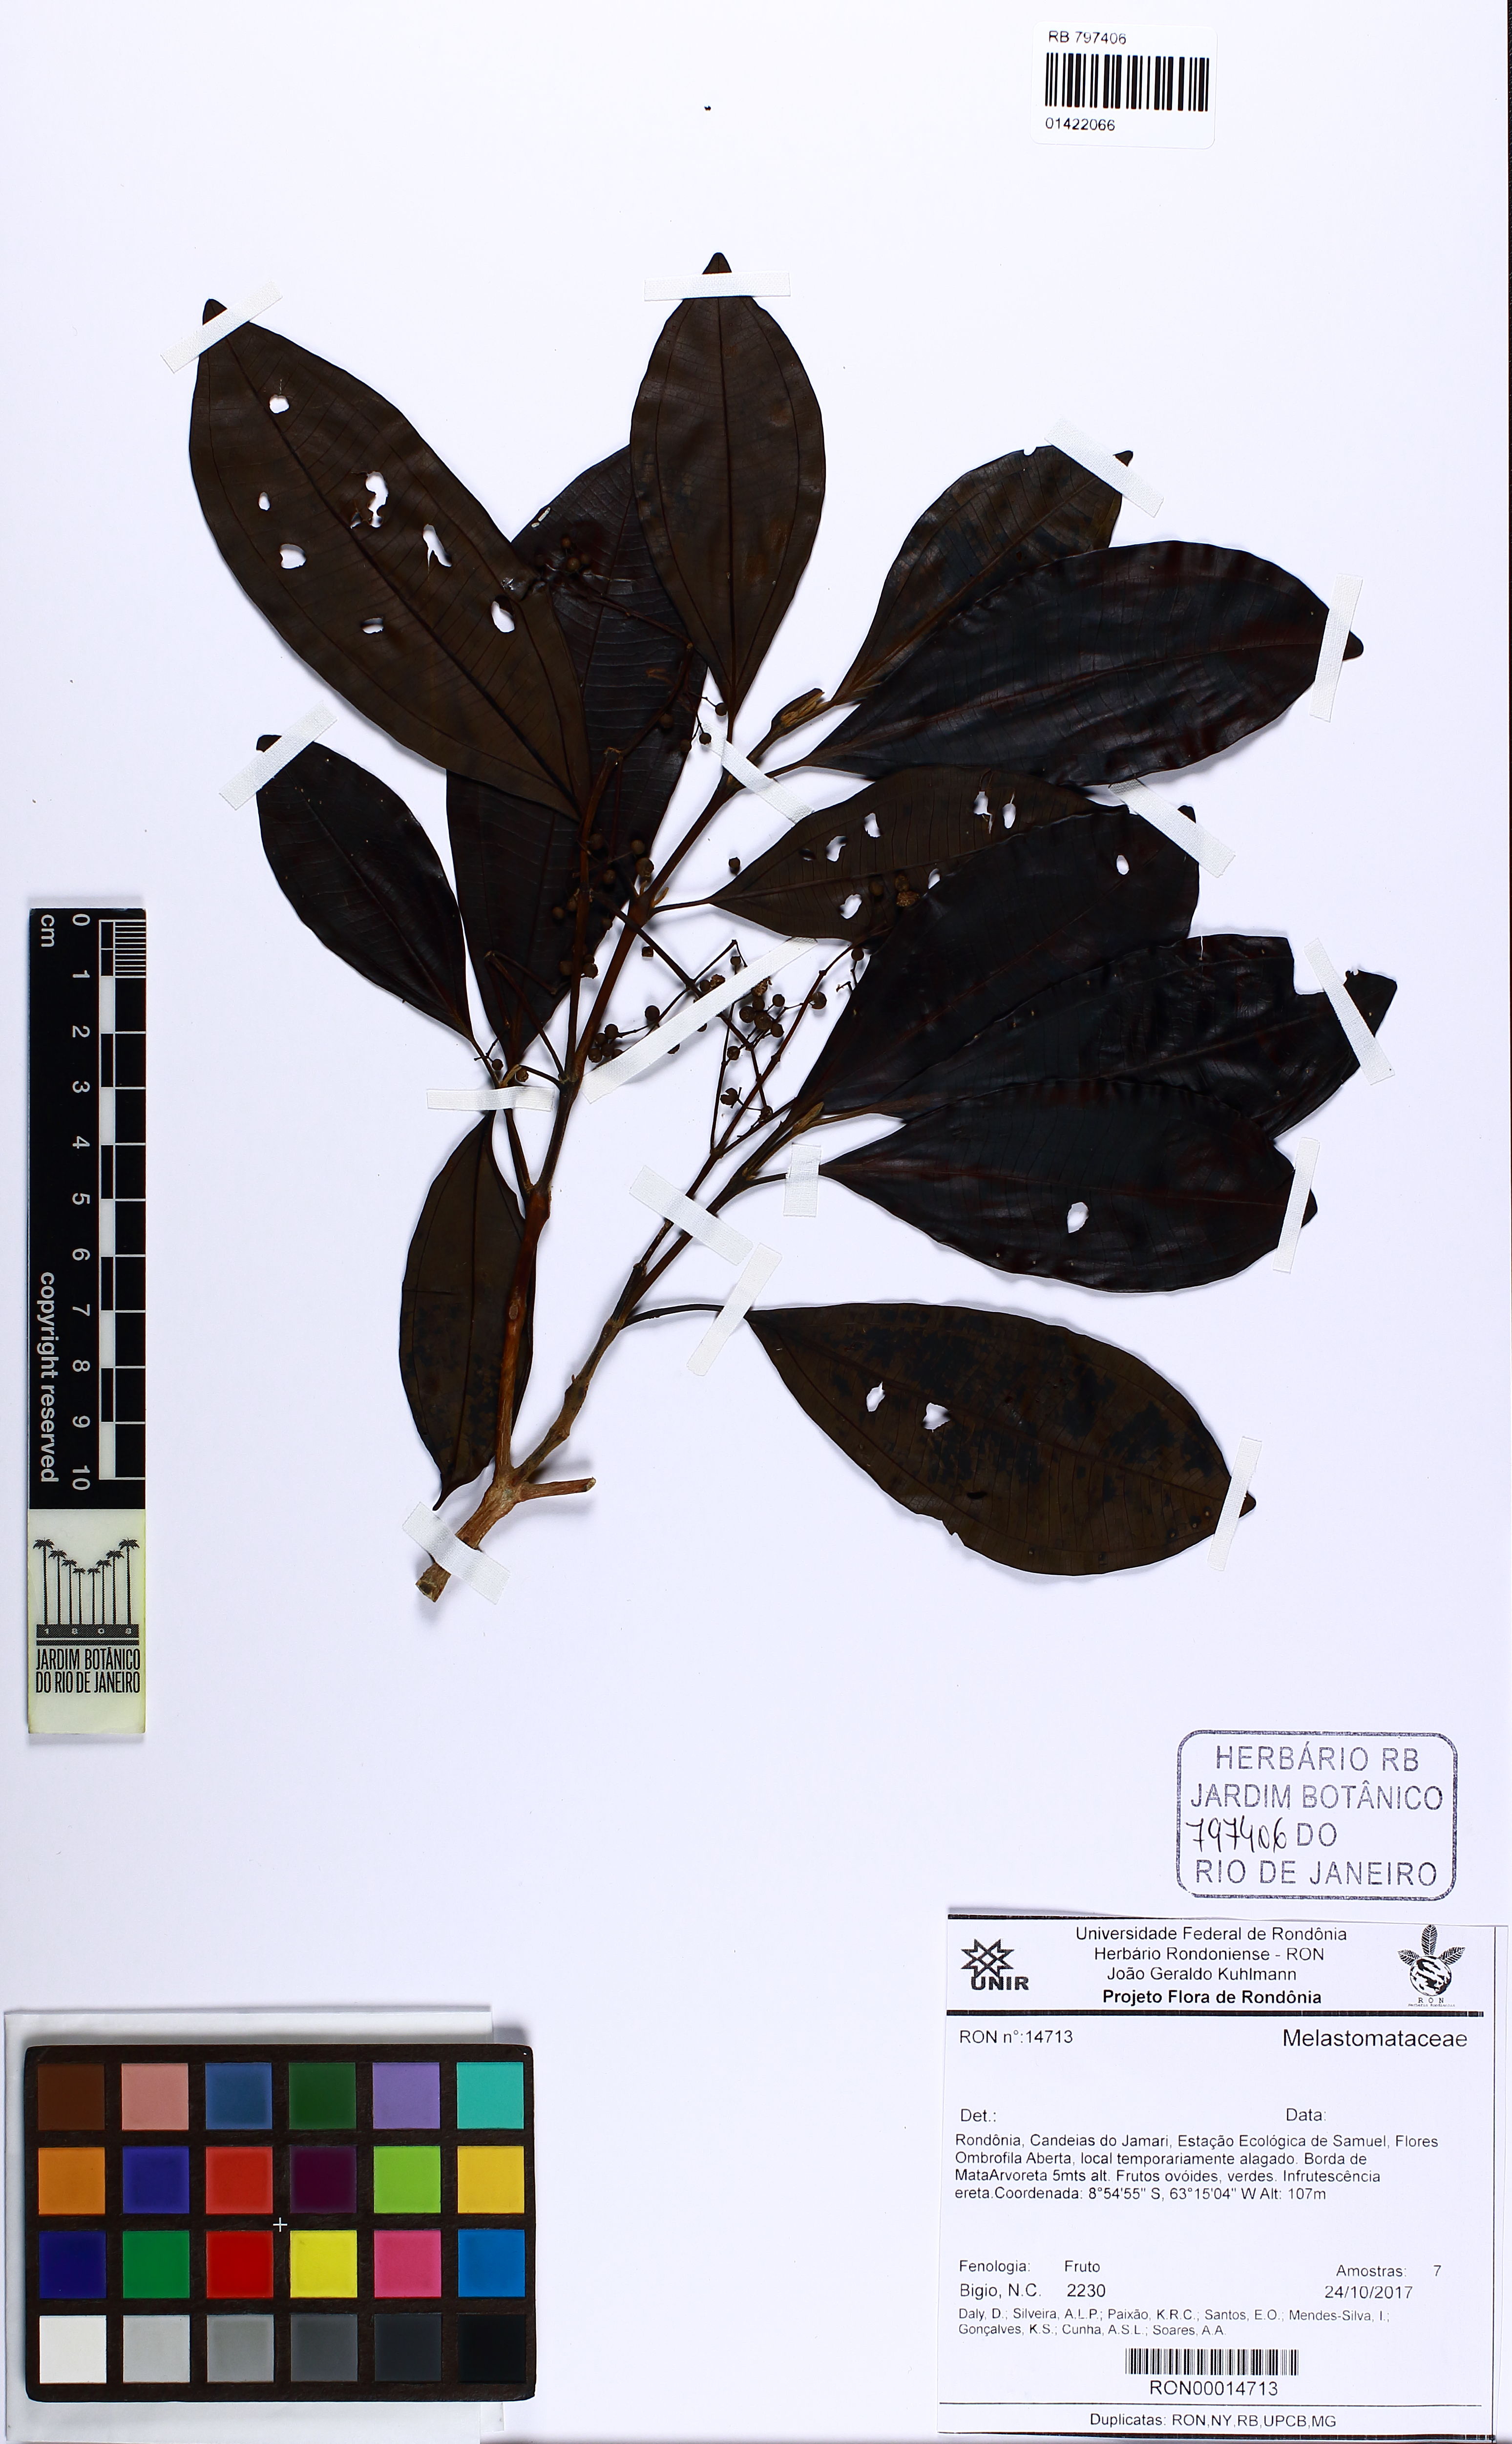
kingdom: Plantae
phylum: Tracheophyta
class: Magnoliopsida
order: Myrtales
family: Melastomataceae
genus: Miconia
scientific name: Miconia poeppigii
